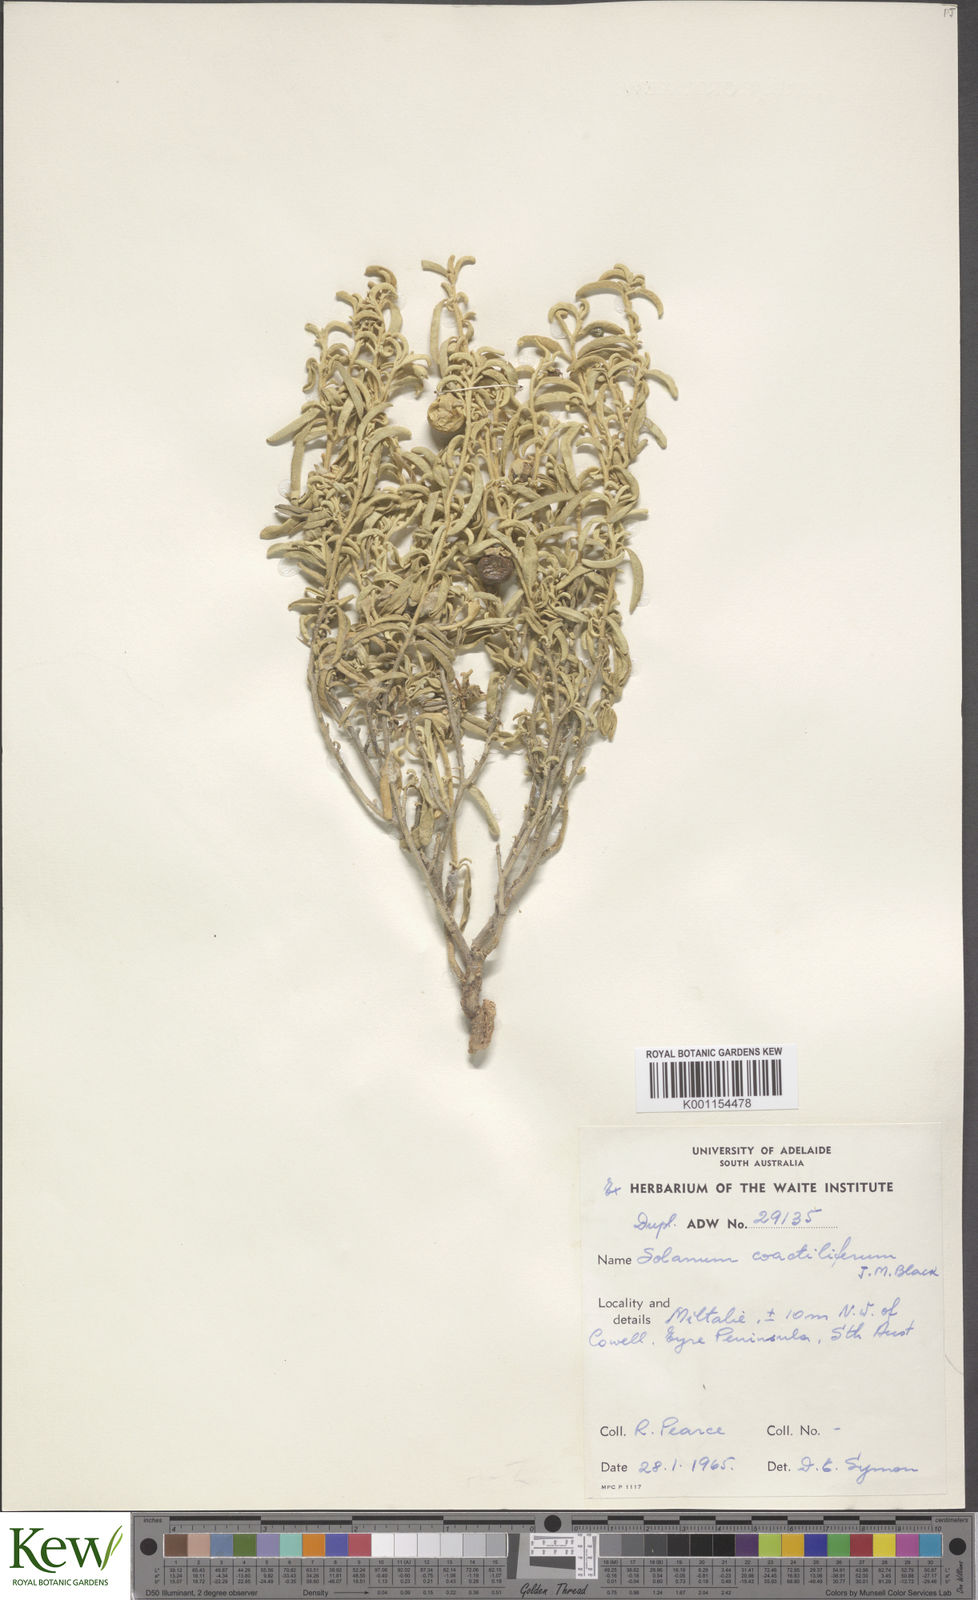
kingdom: Plantae
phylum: Tracheophyta
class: Magnoliopsida
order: Solanales
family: Solanaceae
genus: Solanum
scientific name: Solanum coactiliferum
